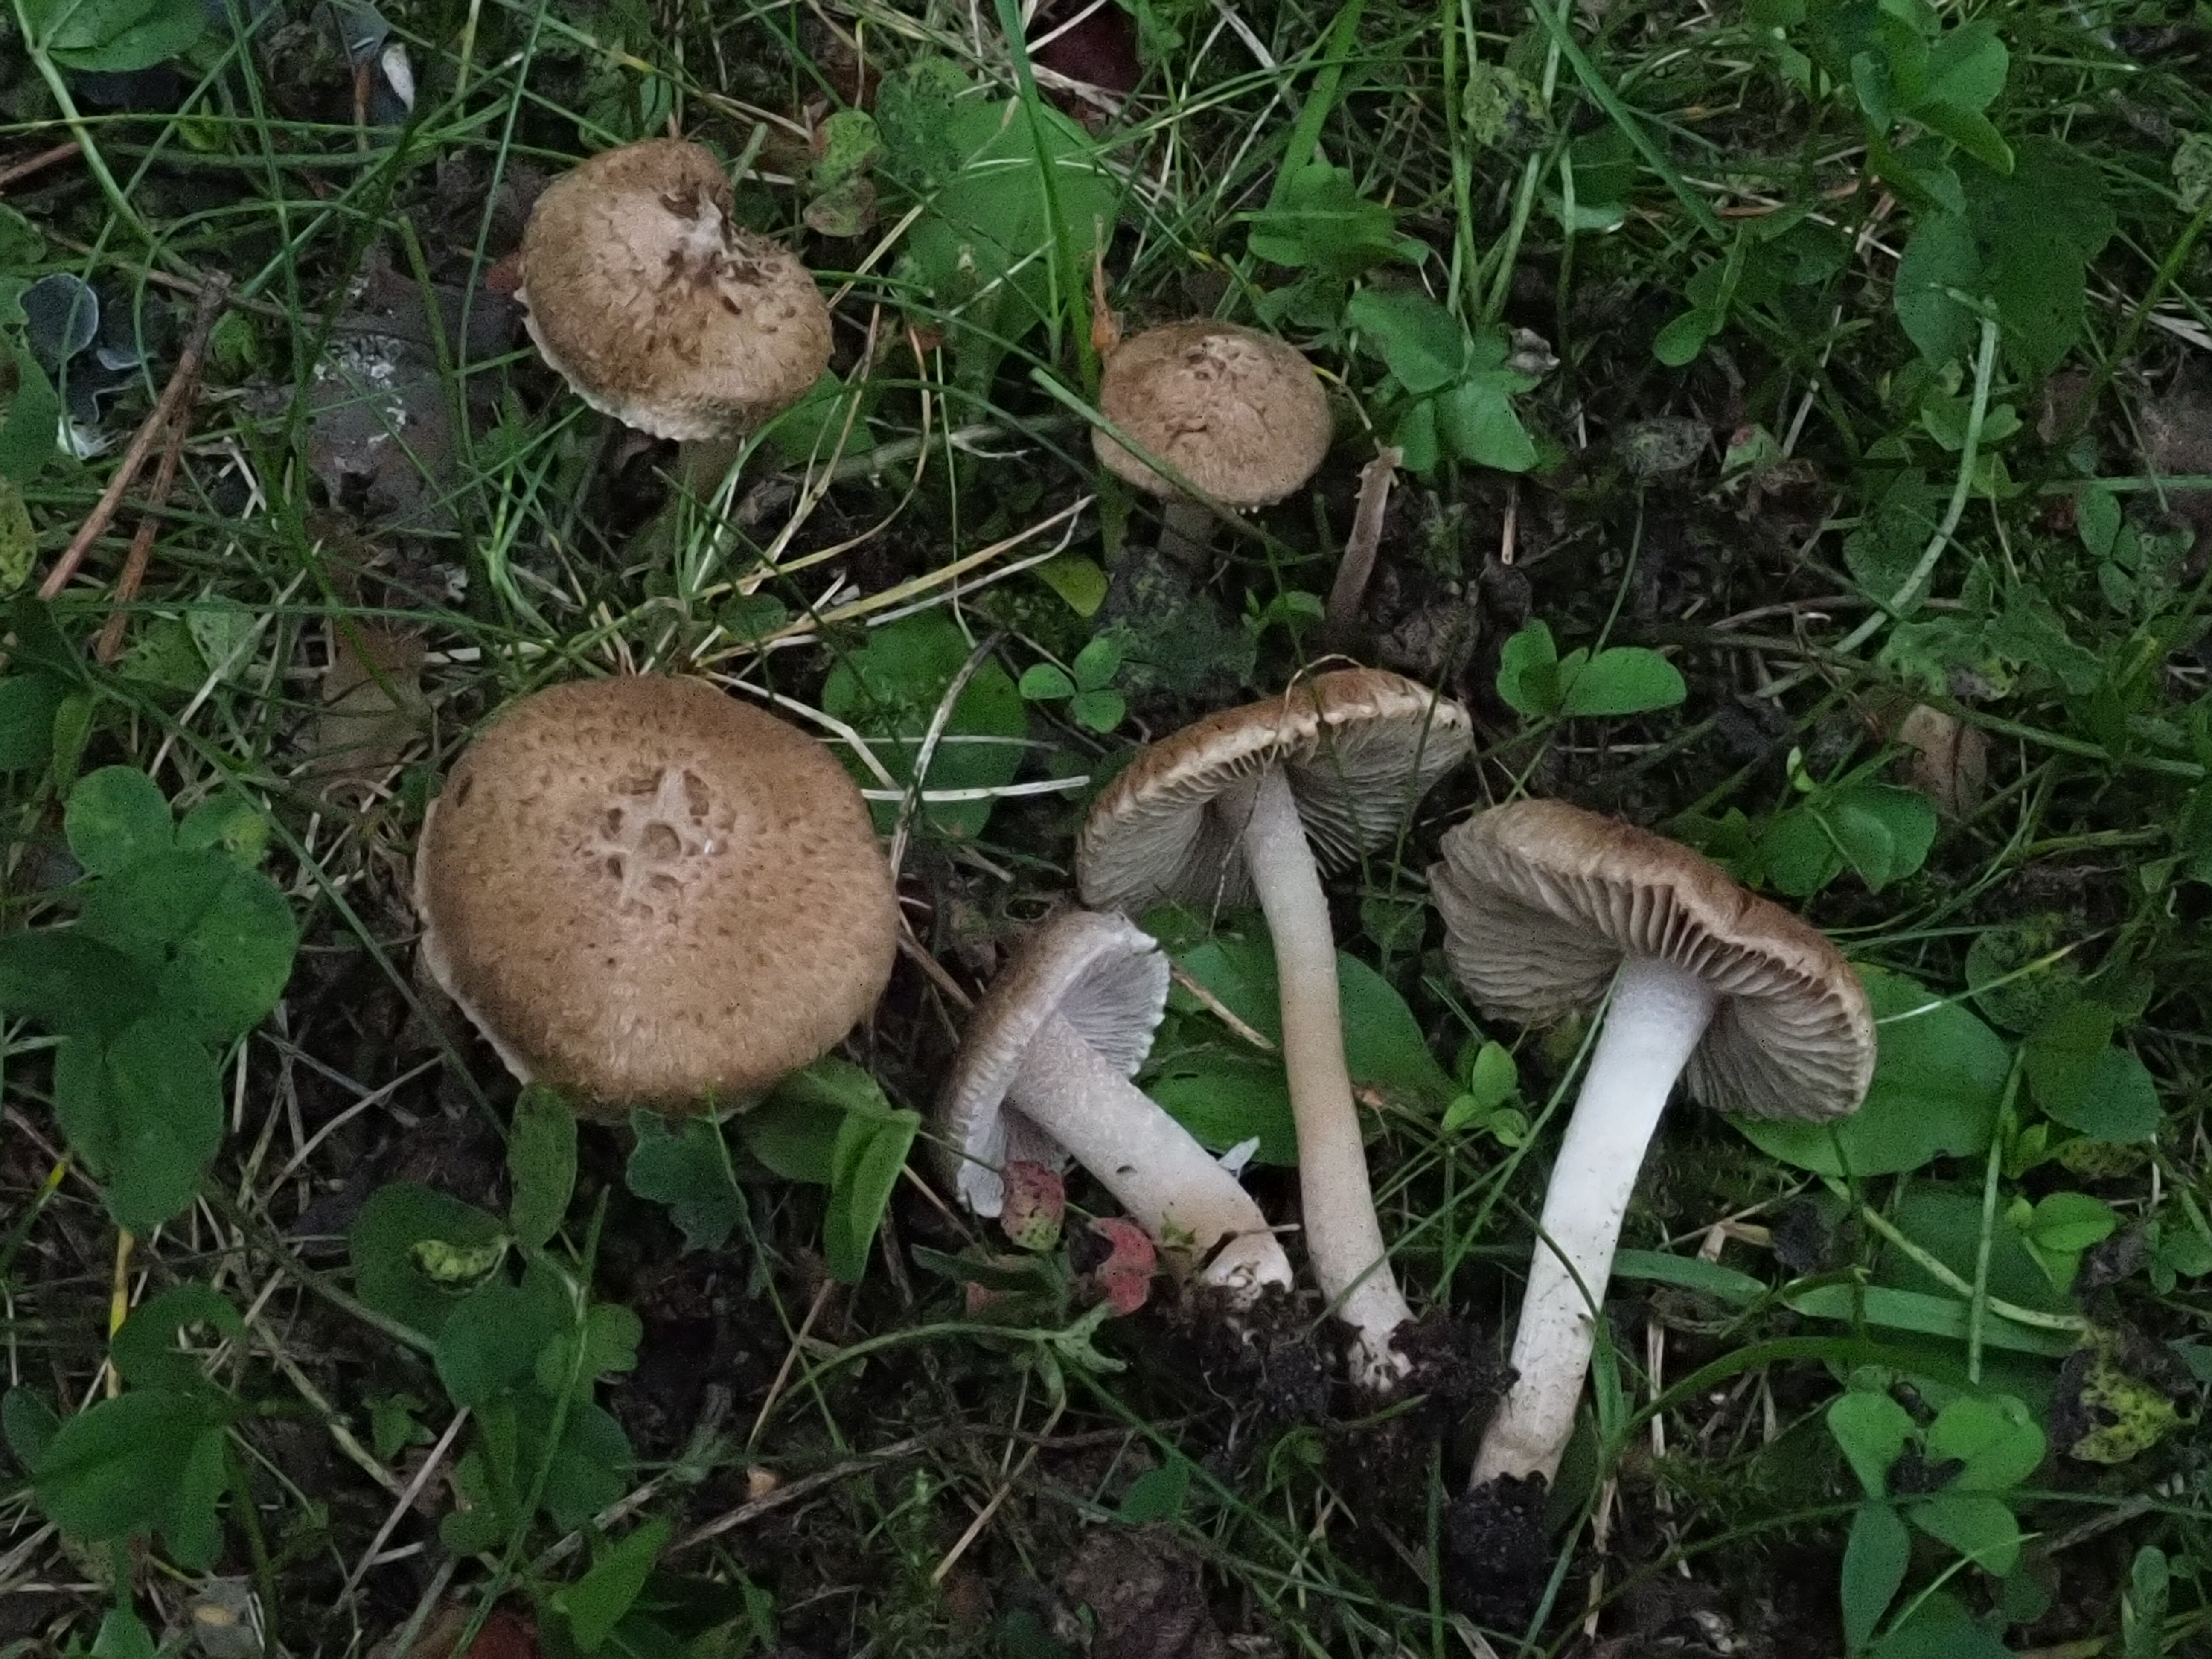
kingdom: Fungi
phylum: Basidiomycota
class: Agaricomycetes
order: Agaricales
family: Inocybaceae
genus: Inocybe
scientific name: Inocybe ochroalba
